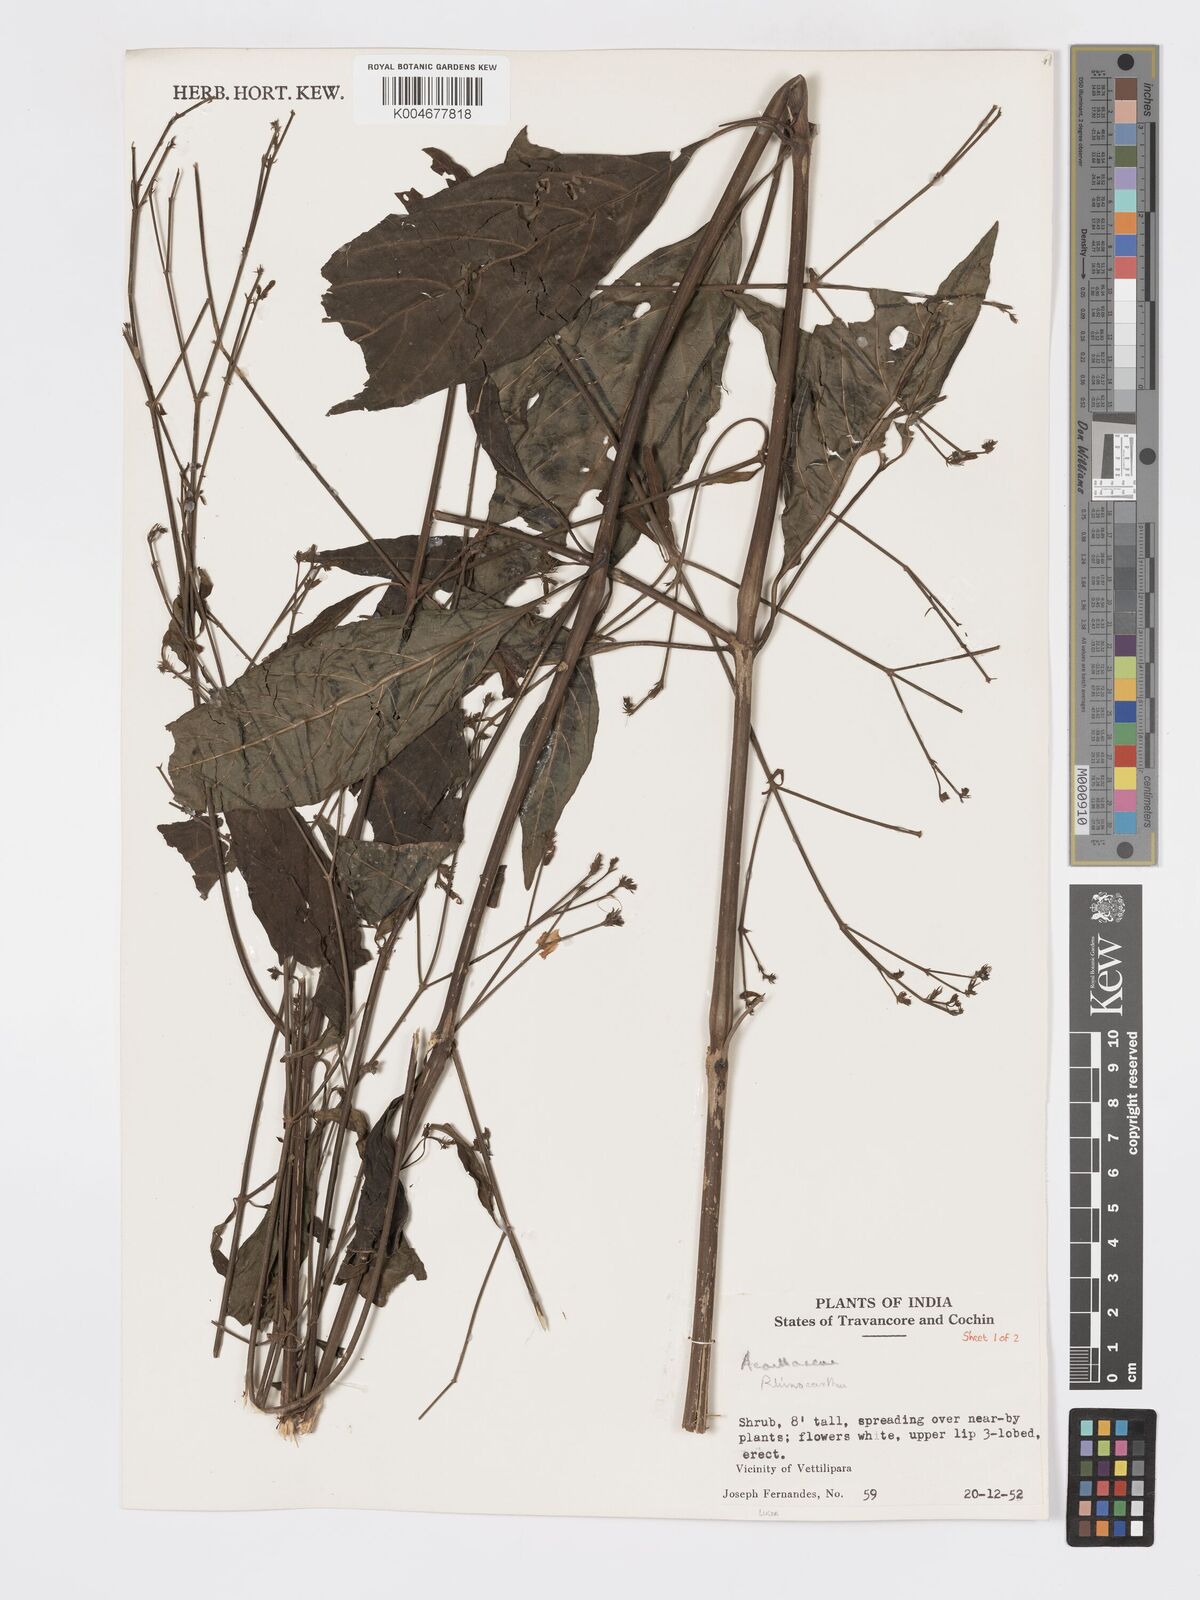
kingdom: Plantae
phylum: Tracheophyta
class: Magnoliopsida
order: Lamiales
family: Acanthaceae
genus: Rhinacanthus
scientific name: Rhinacanthus nasutus
